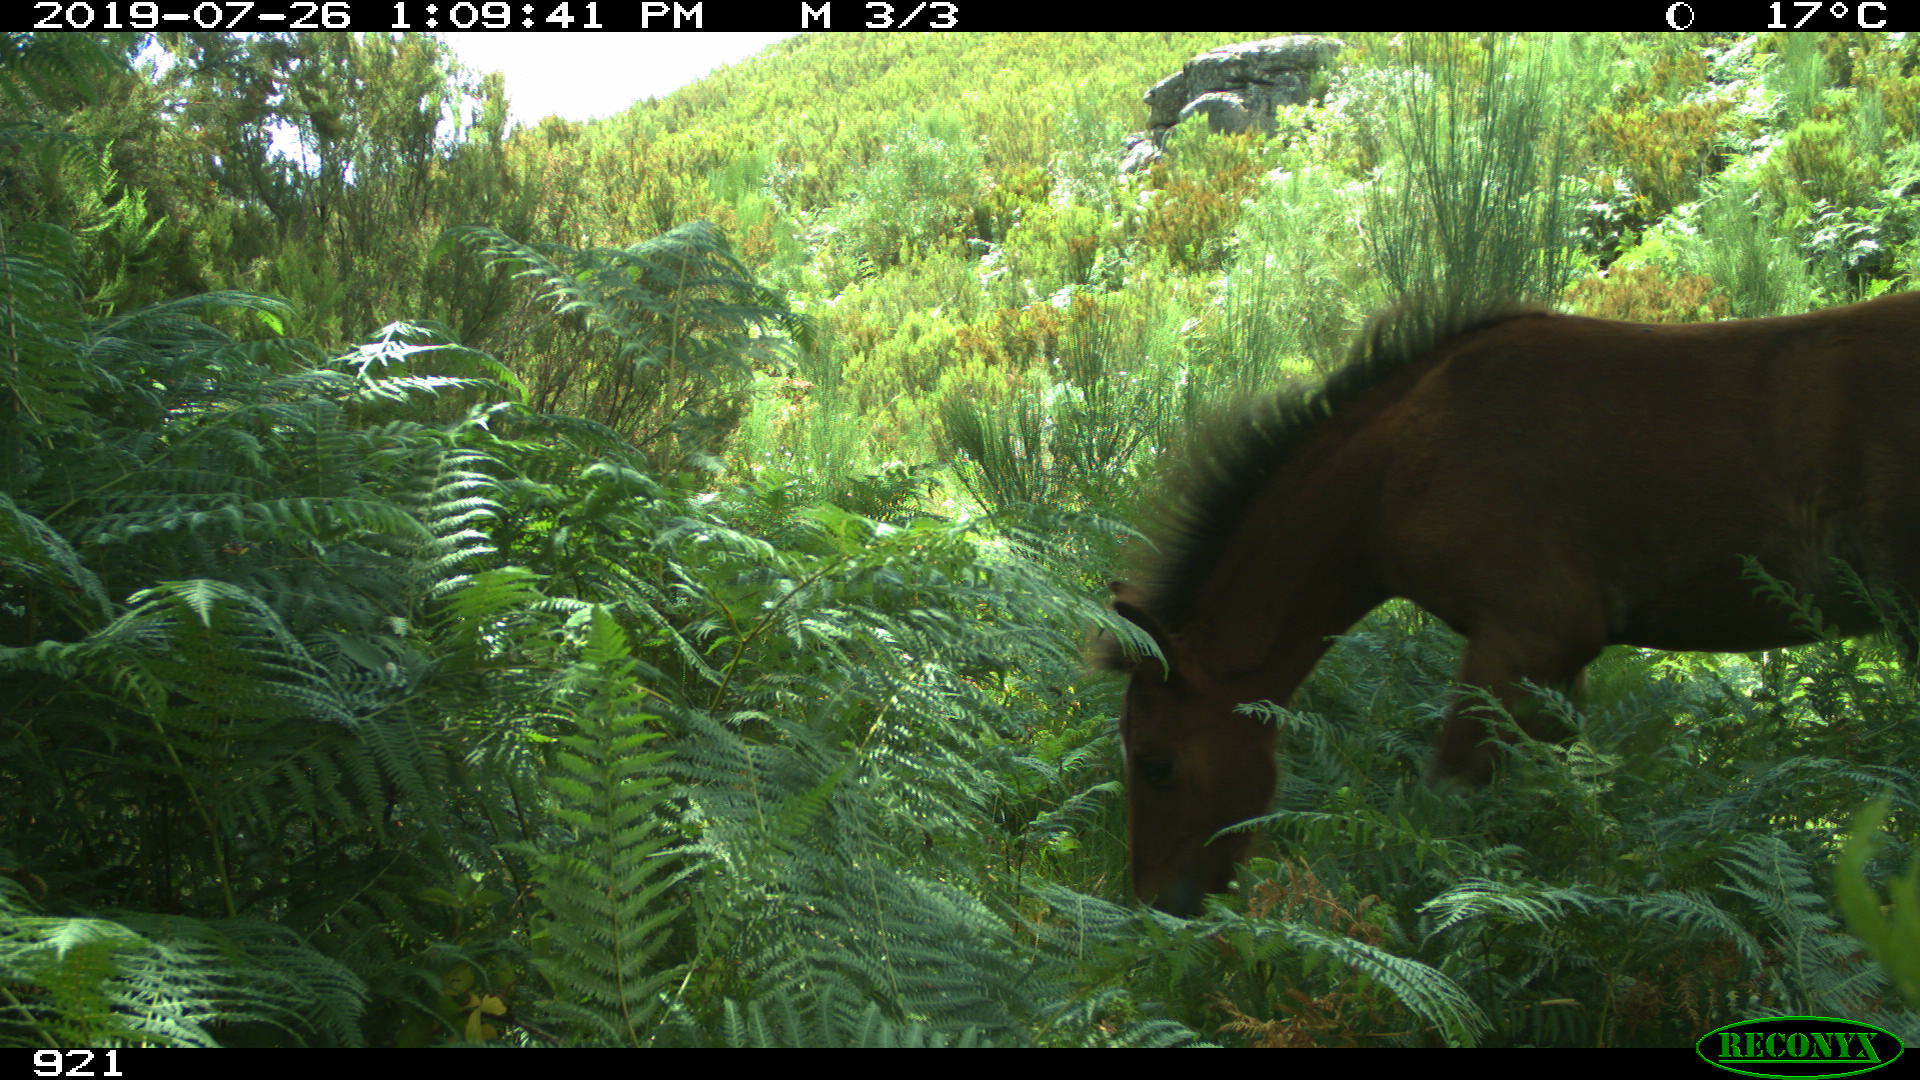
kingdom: Animalia
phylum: Chordata
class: Mammalia
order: Perissodactyla
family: Equidae
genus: Equus
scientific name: Equus caballus
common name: Horse
